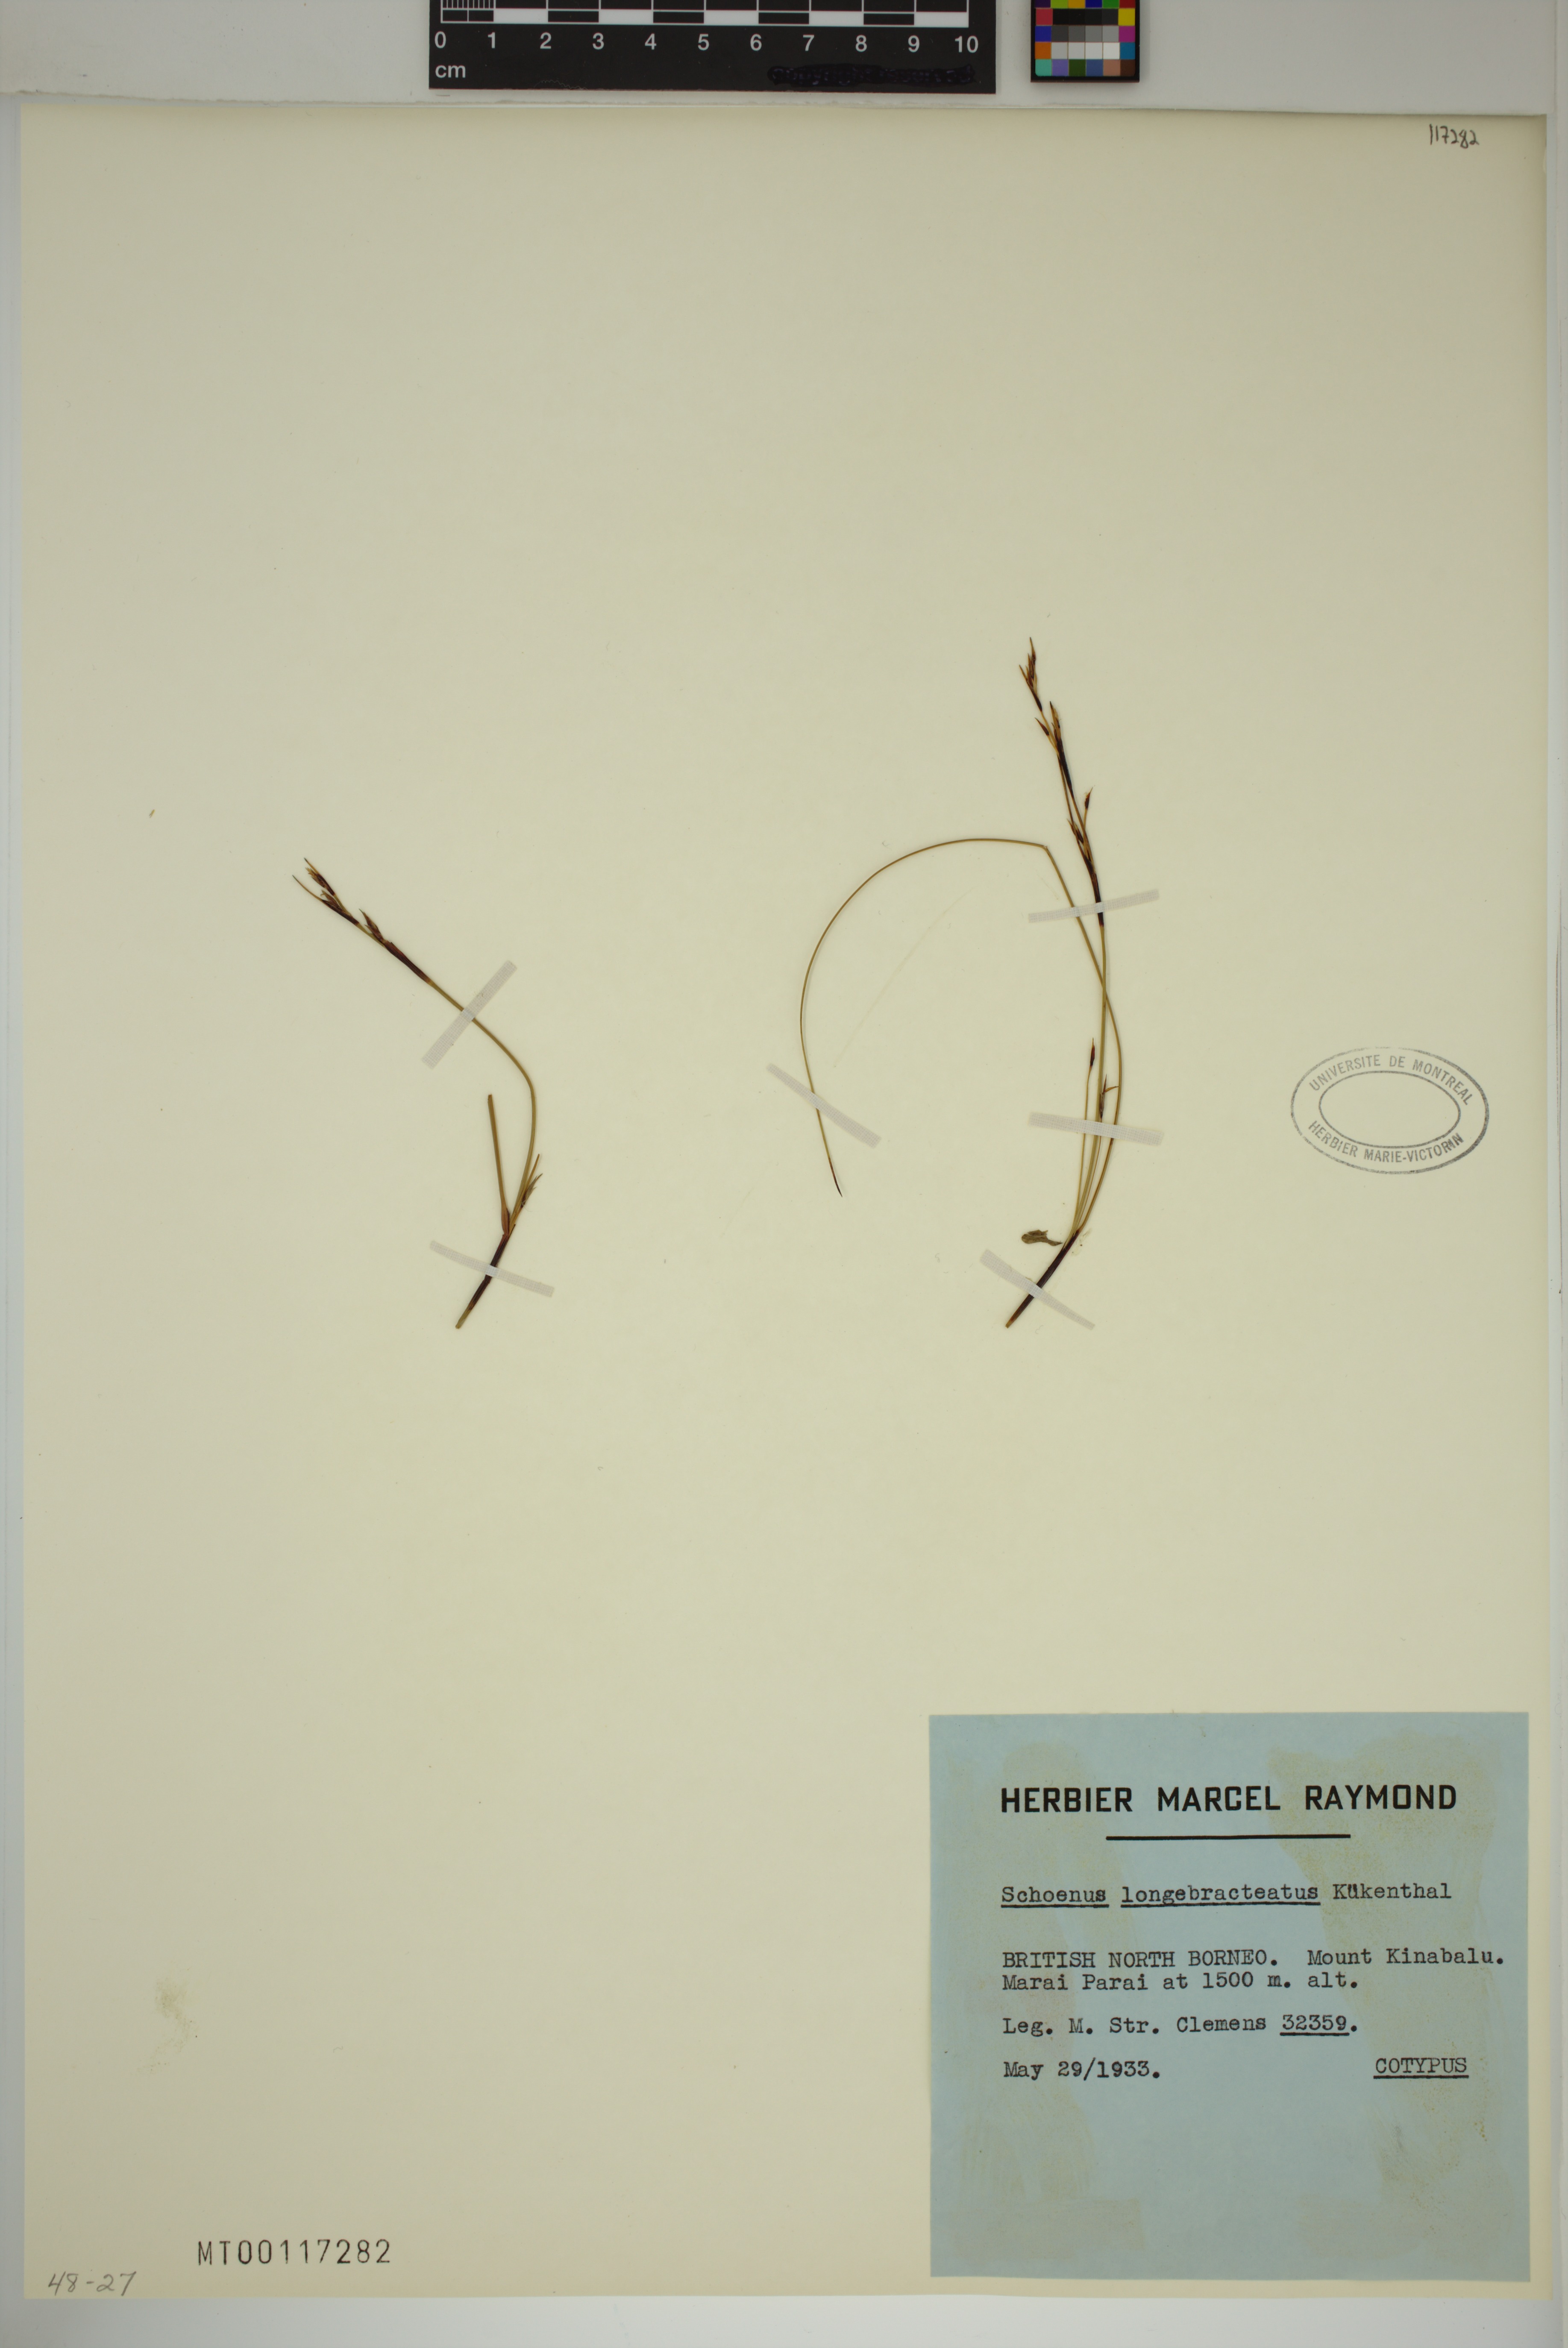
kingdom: Plantae
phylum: Tracheophyta
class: Liliopsida
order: Poales
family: Cyperaceae
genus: Schoenus
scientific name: Schoenus longibracteatus
